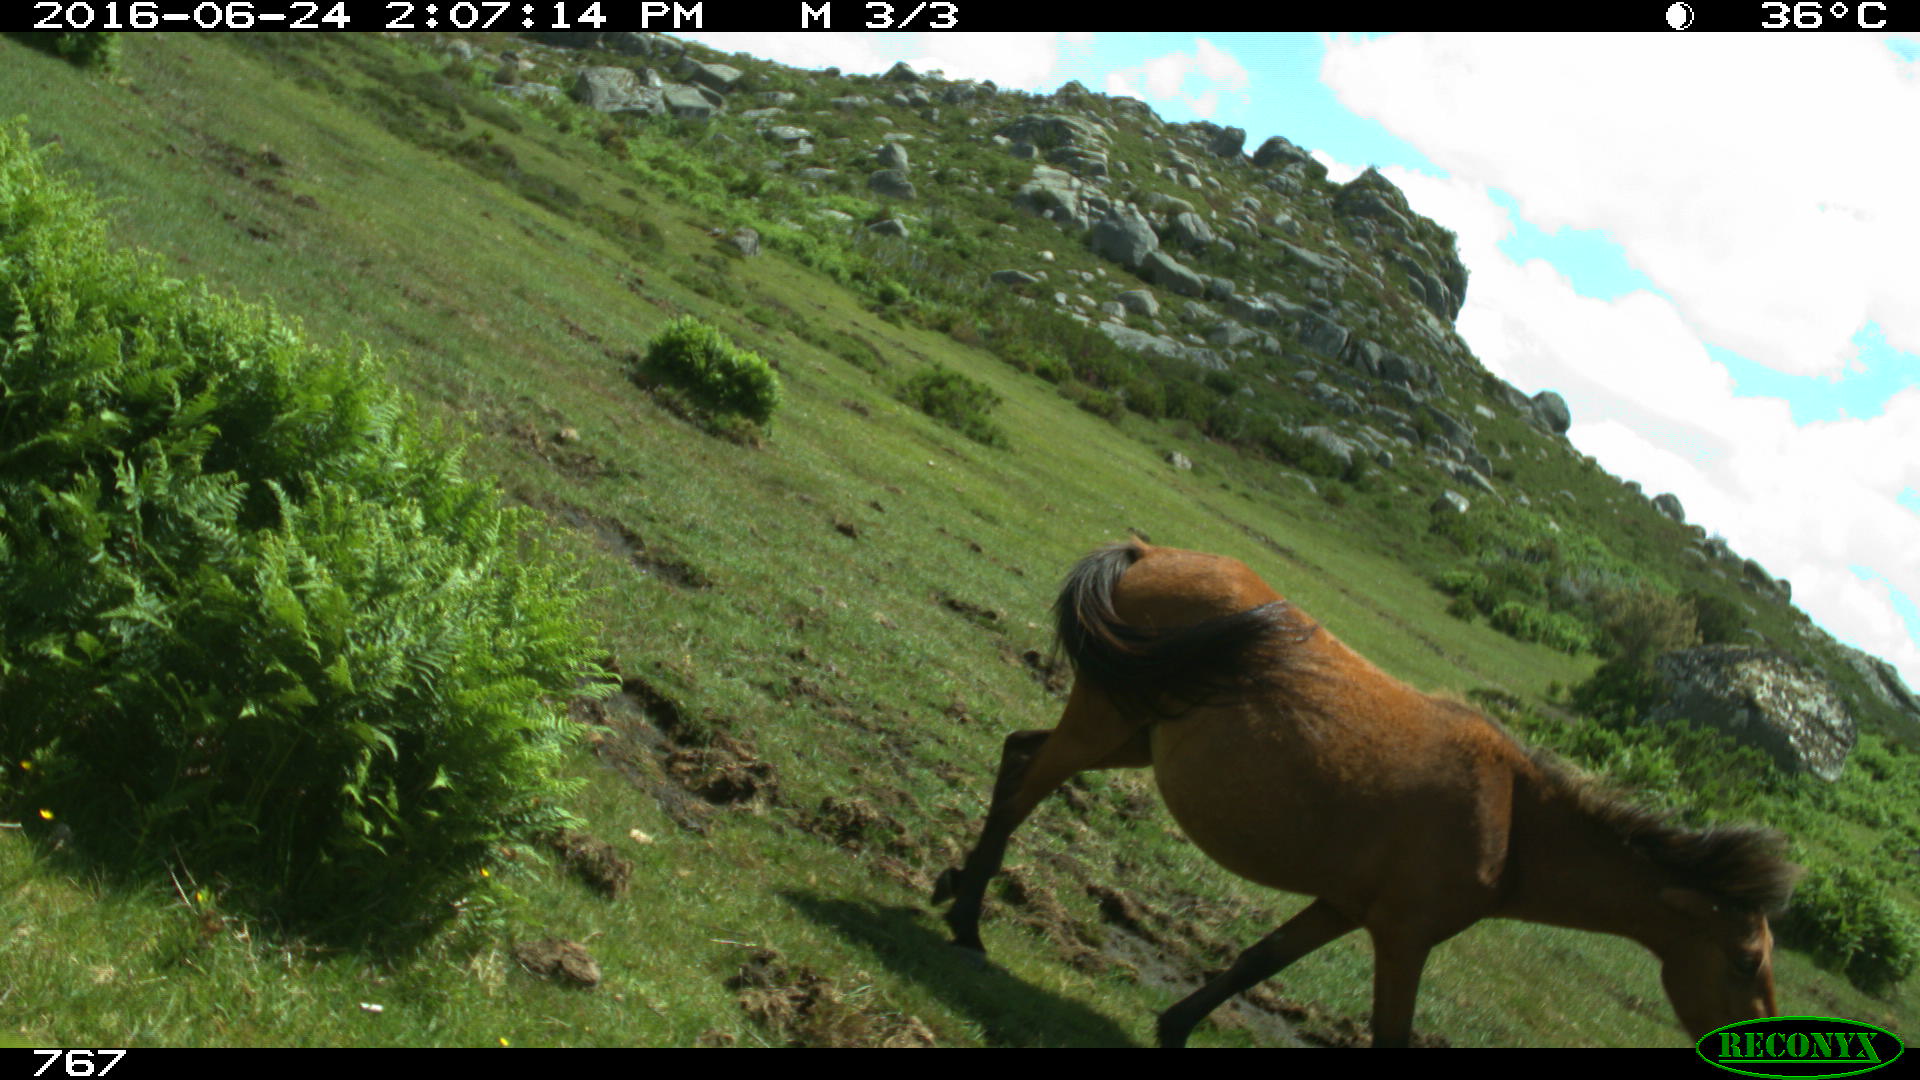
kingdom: Animalia
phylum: Chordata
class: Mammalia
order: Perissodactyla
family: Equidae
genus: Equus
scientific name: Equus caballus
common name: Horse
